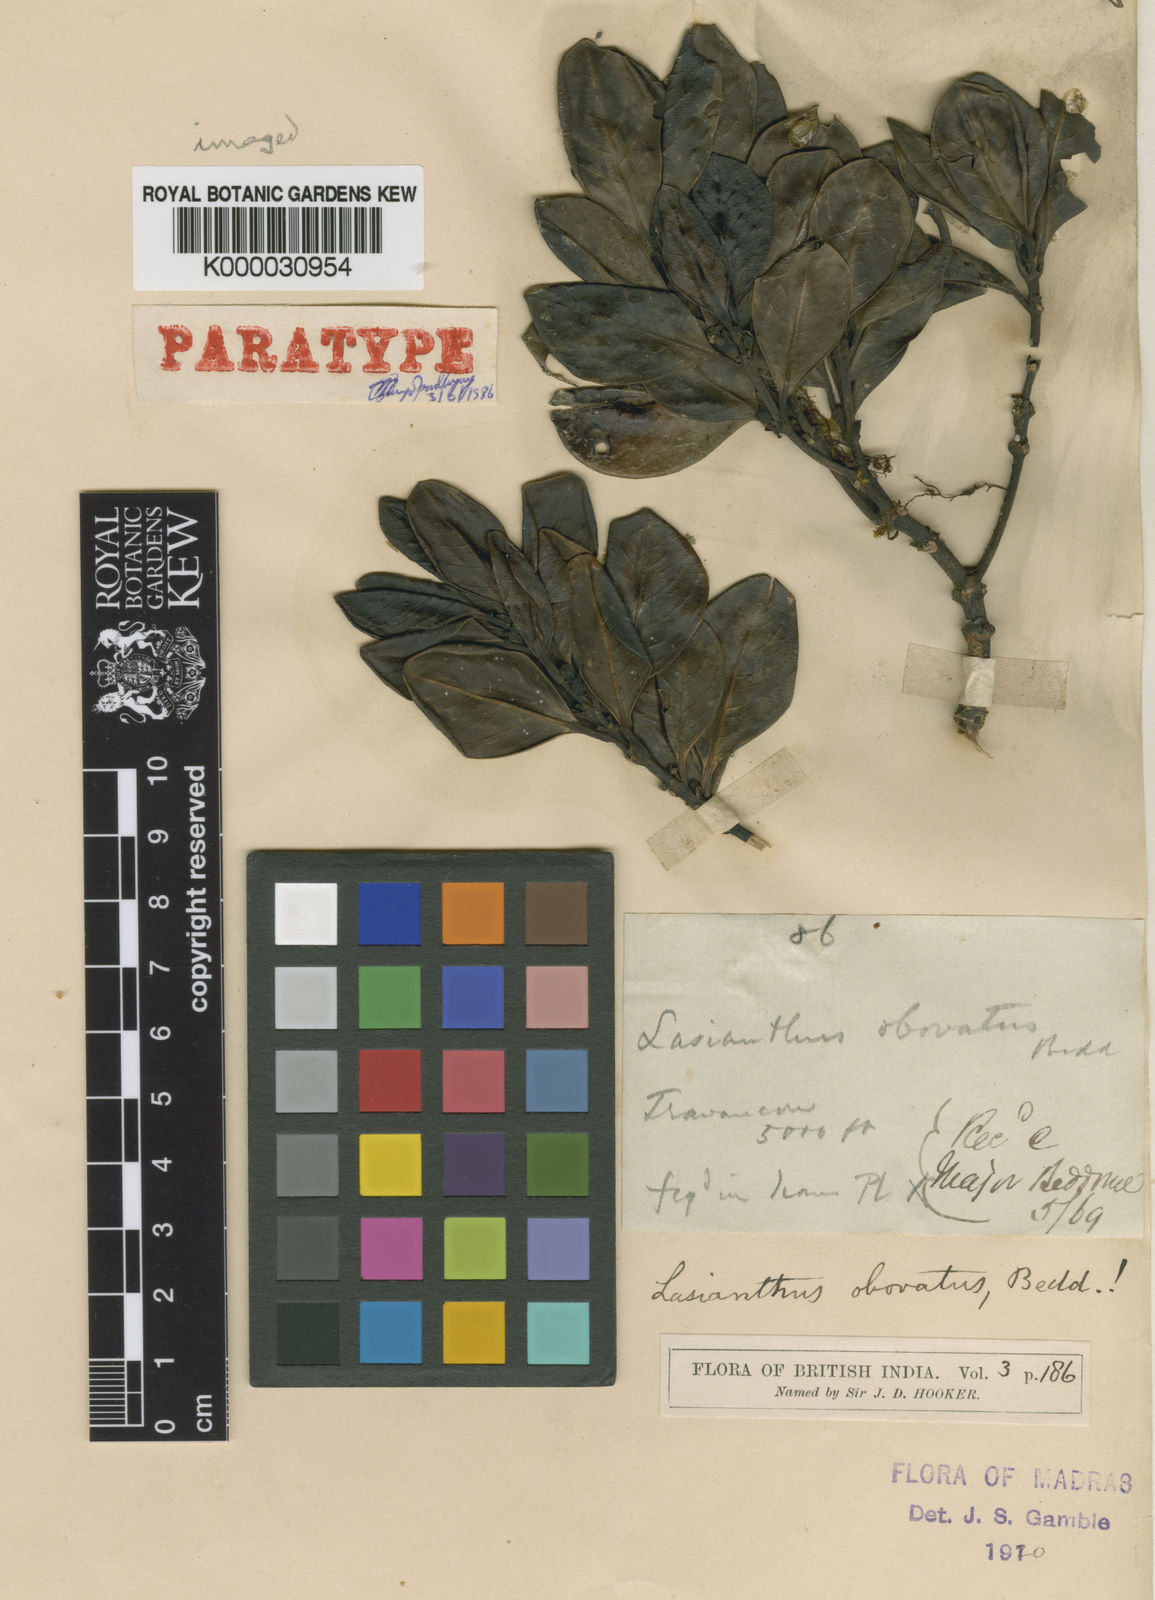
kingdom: Plantae
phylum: Tracheophyta
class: Magnoliopsida
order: Gentianales
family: Rubiaceae
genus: Lasianthus
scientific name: Lasianthus obovatus
